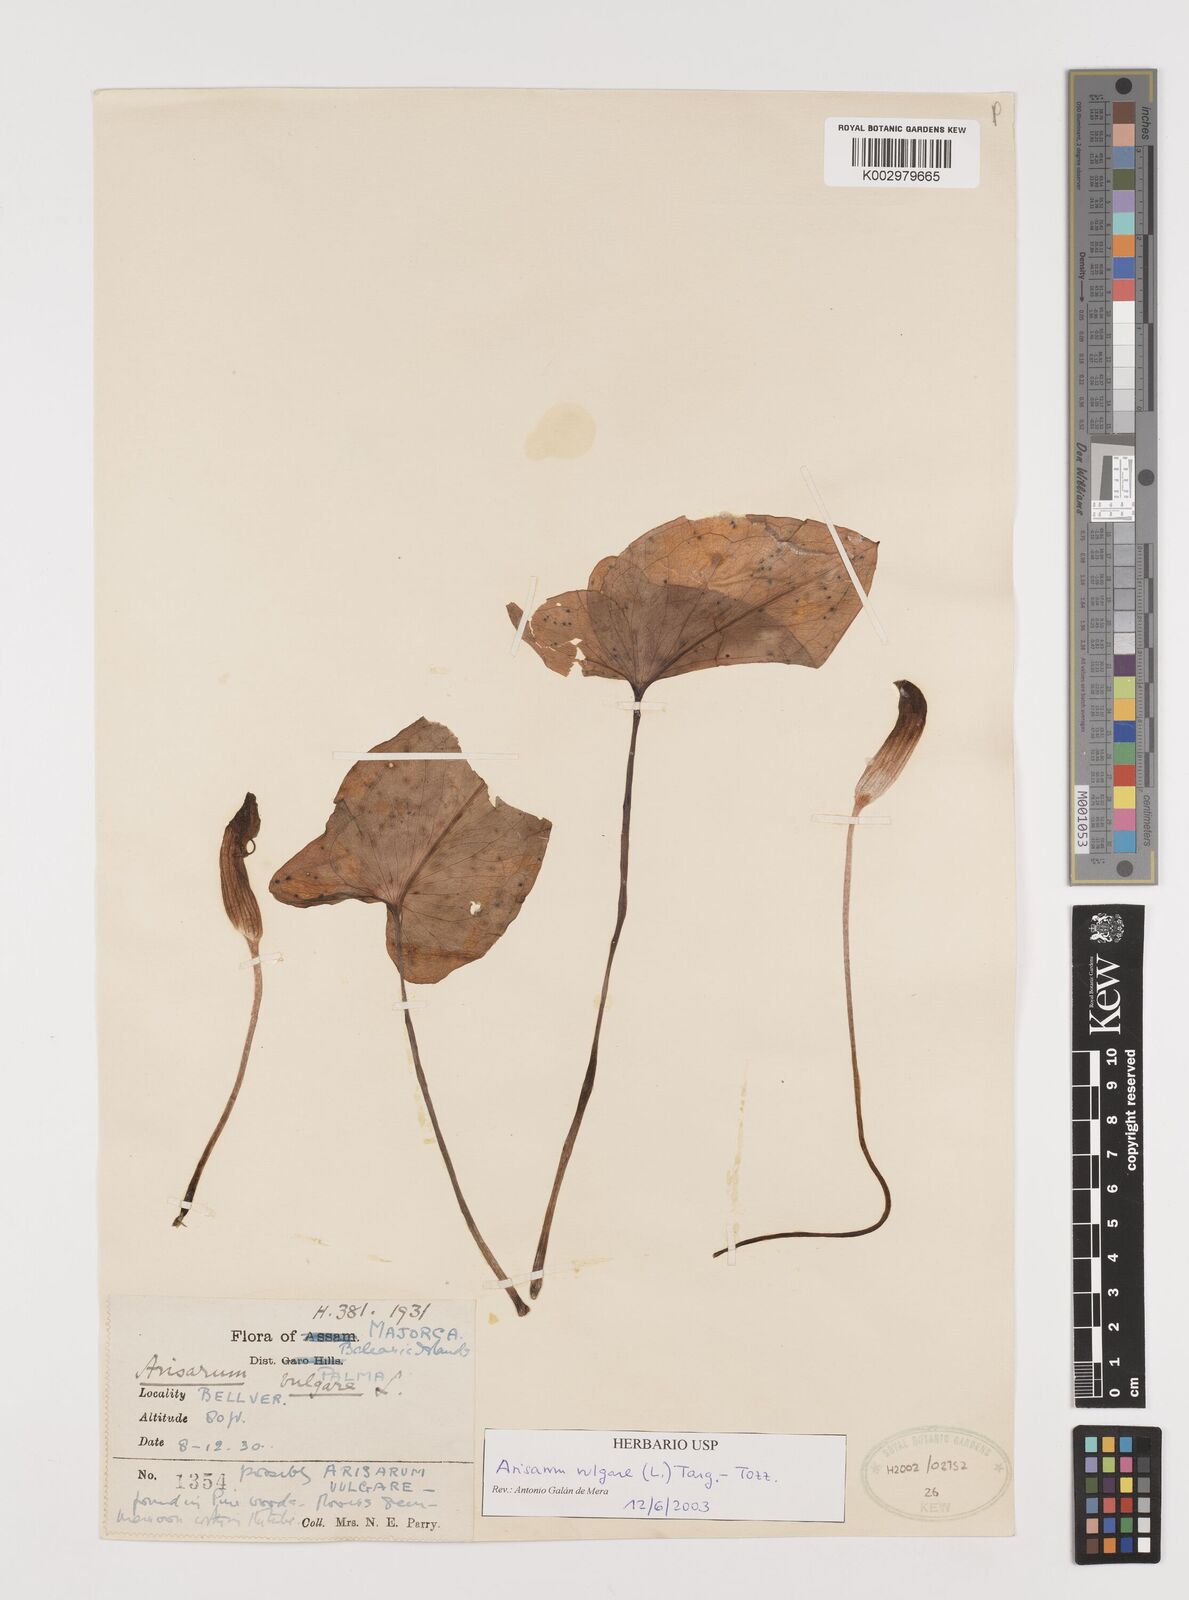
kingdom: Plantae
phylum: Tracheophyta
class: Liliopsida
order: Alismatales
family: Araceae
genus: Arisarum
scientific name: Arisarum vulgare
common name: Common arisarum
